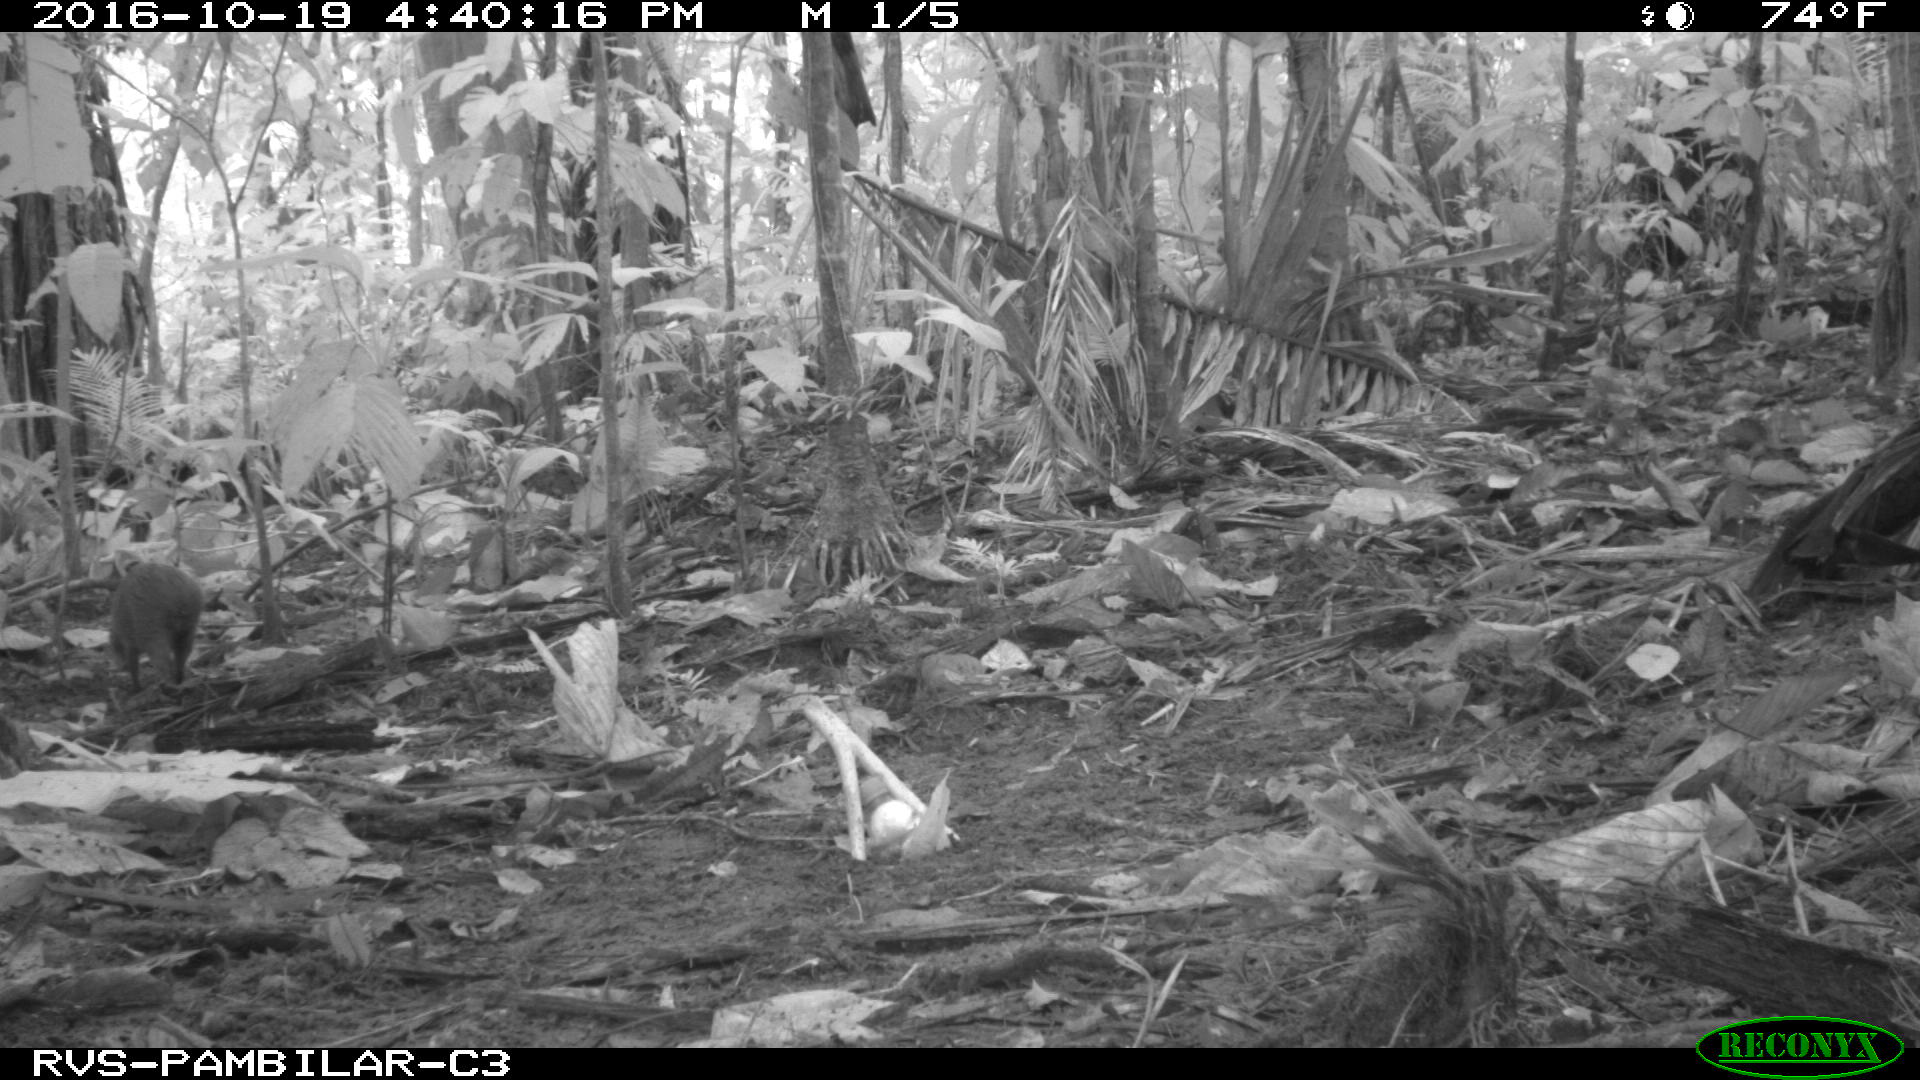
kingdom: Animalia
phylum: Chordata
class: Mammalia
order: Rodentia
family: Dasyproctidae
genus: Dasyprocta
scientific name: Dasyprocta punctata
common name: Central american agouti
